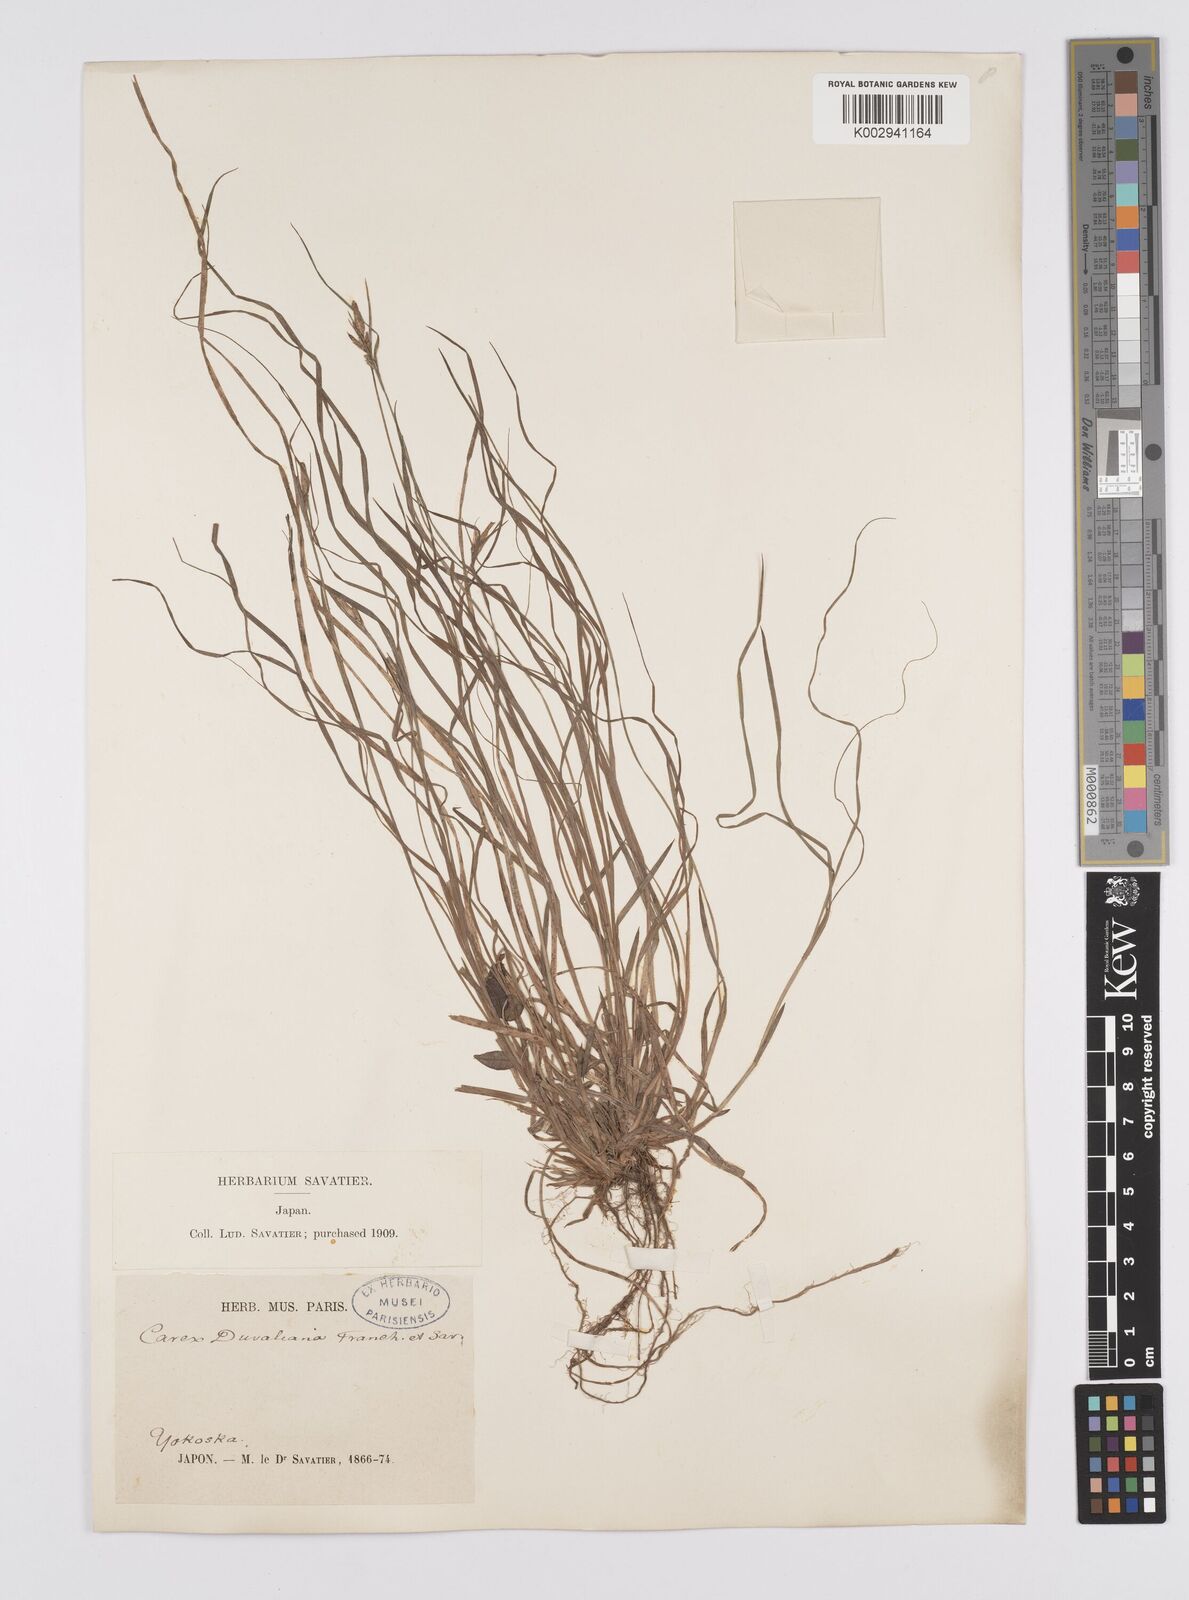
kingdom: Plantae
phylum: Tracheophyta
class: Liliopsida
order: Poales
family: Cyperaceae
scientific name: Cyperaceae
